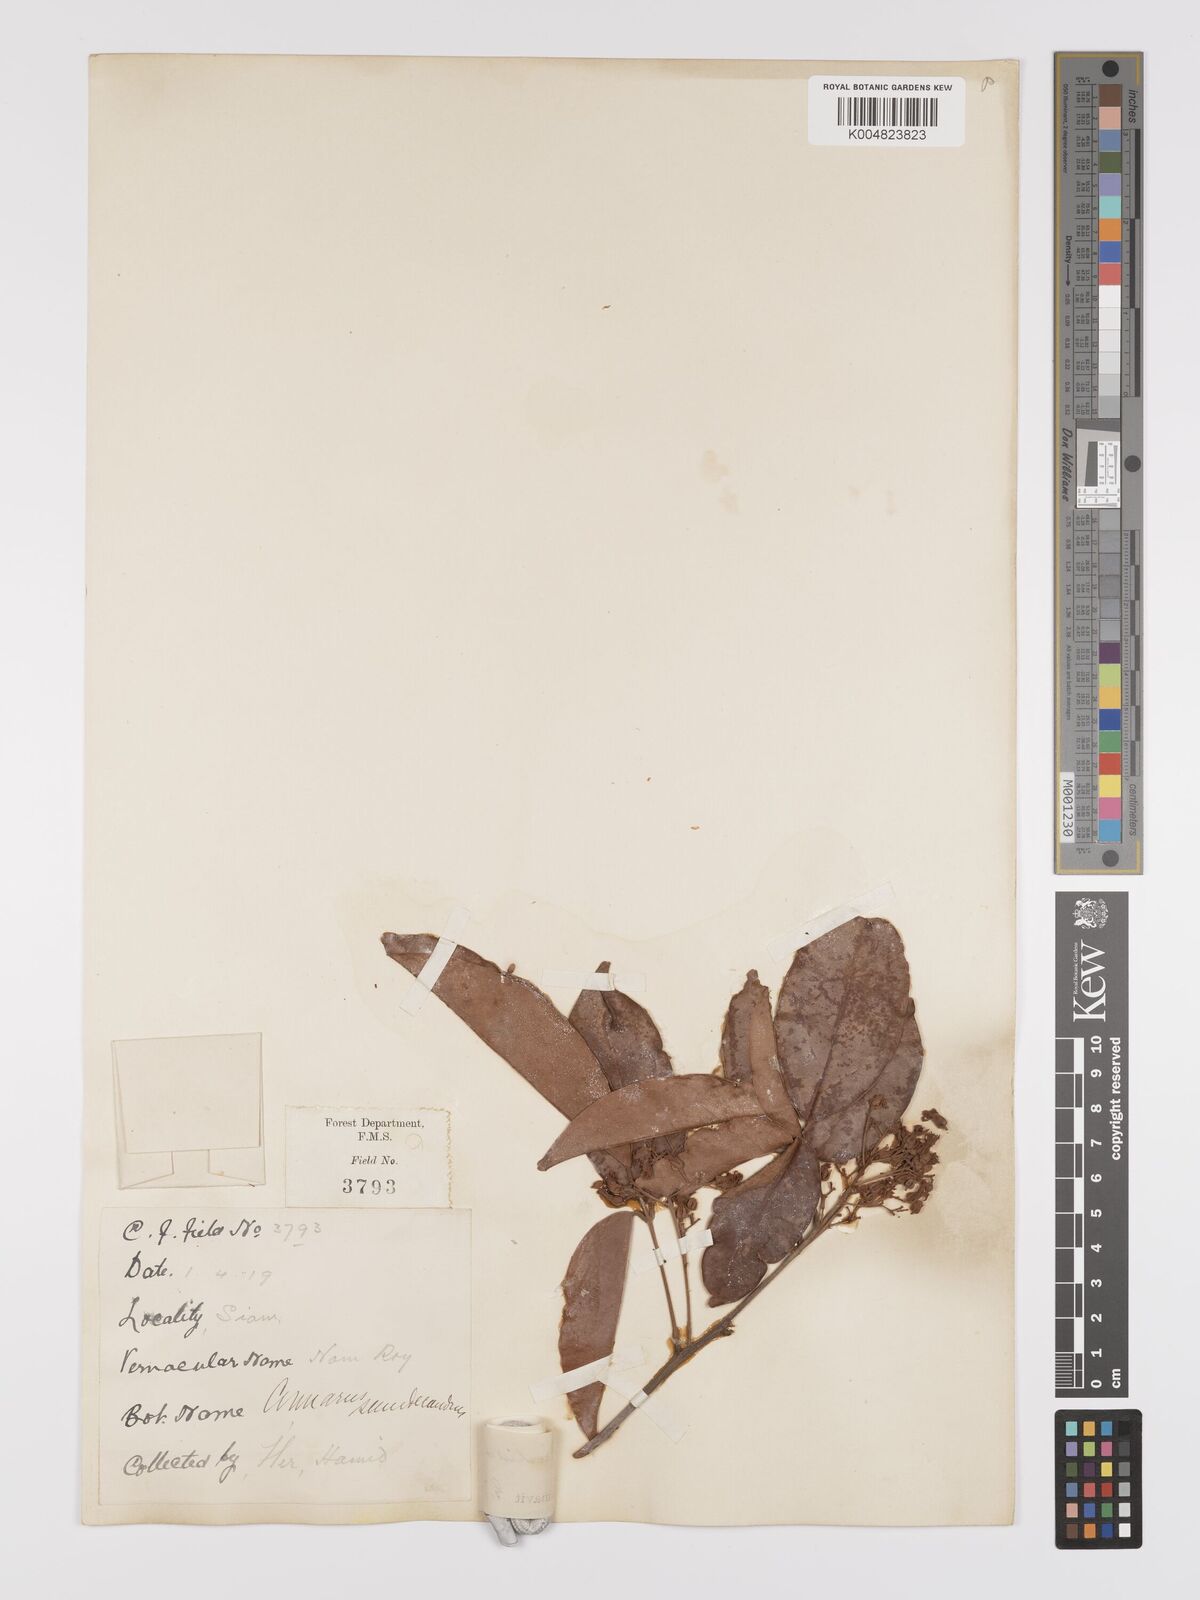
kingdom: Plantae
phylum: Tracheophyta
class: Magnoliopsida
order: Oxalidales
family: Connaraceae
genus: Connarus
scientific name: Connarus cochinchinensis
